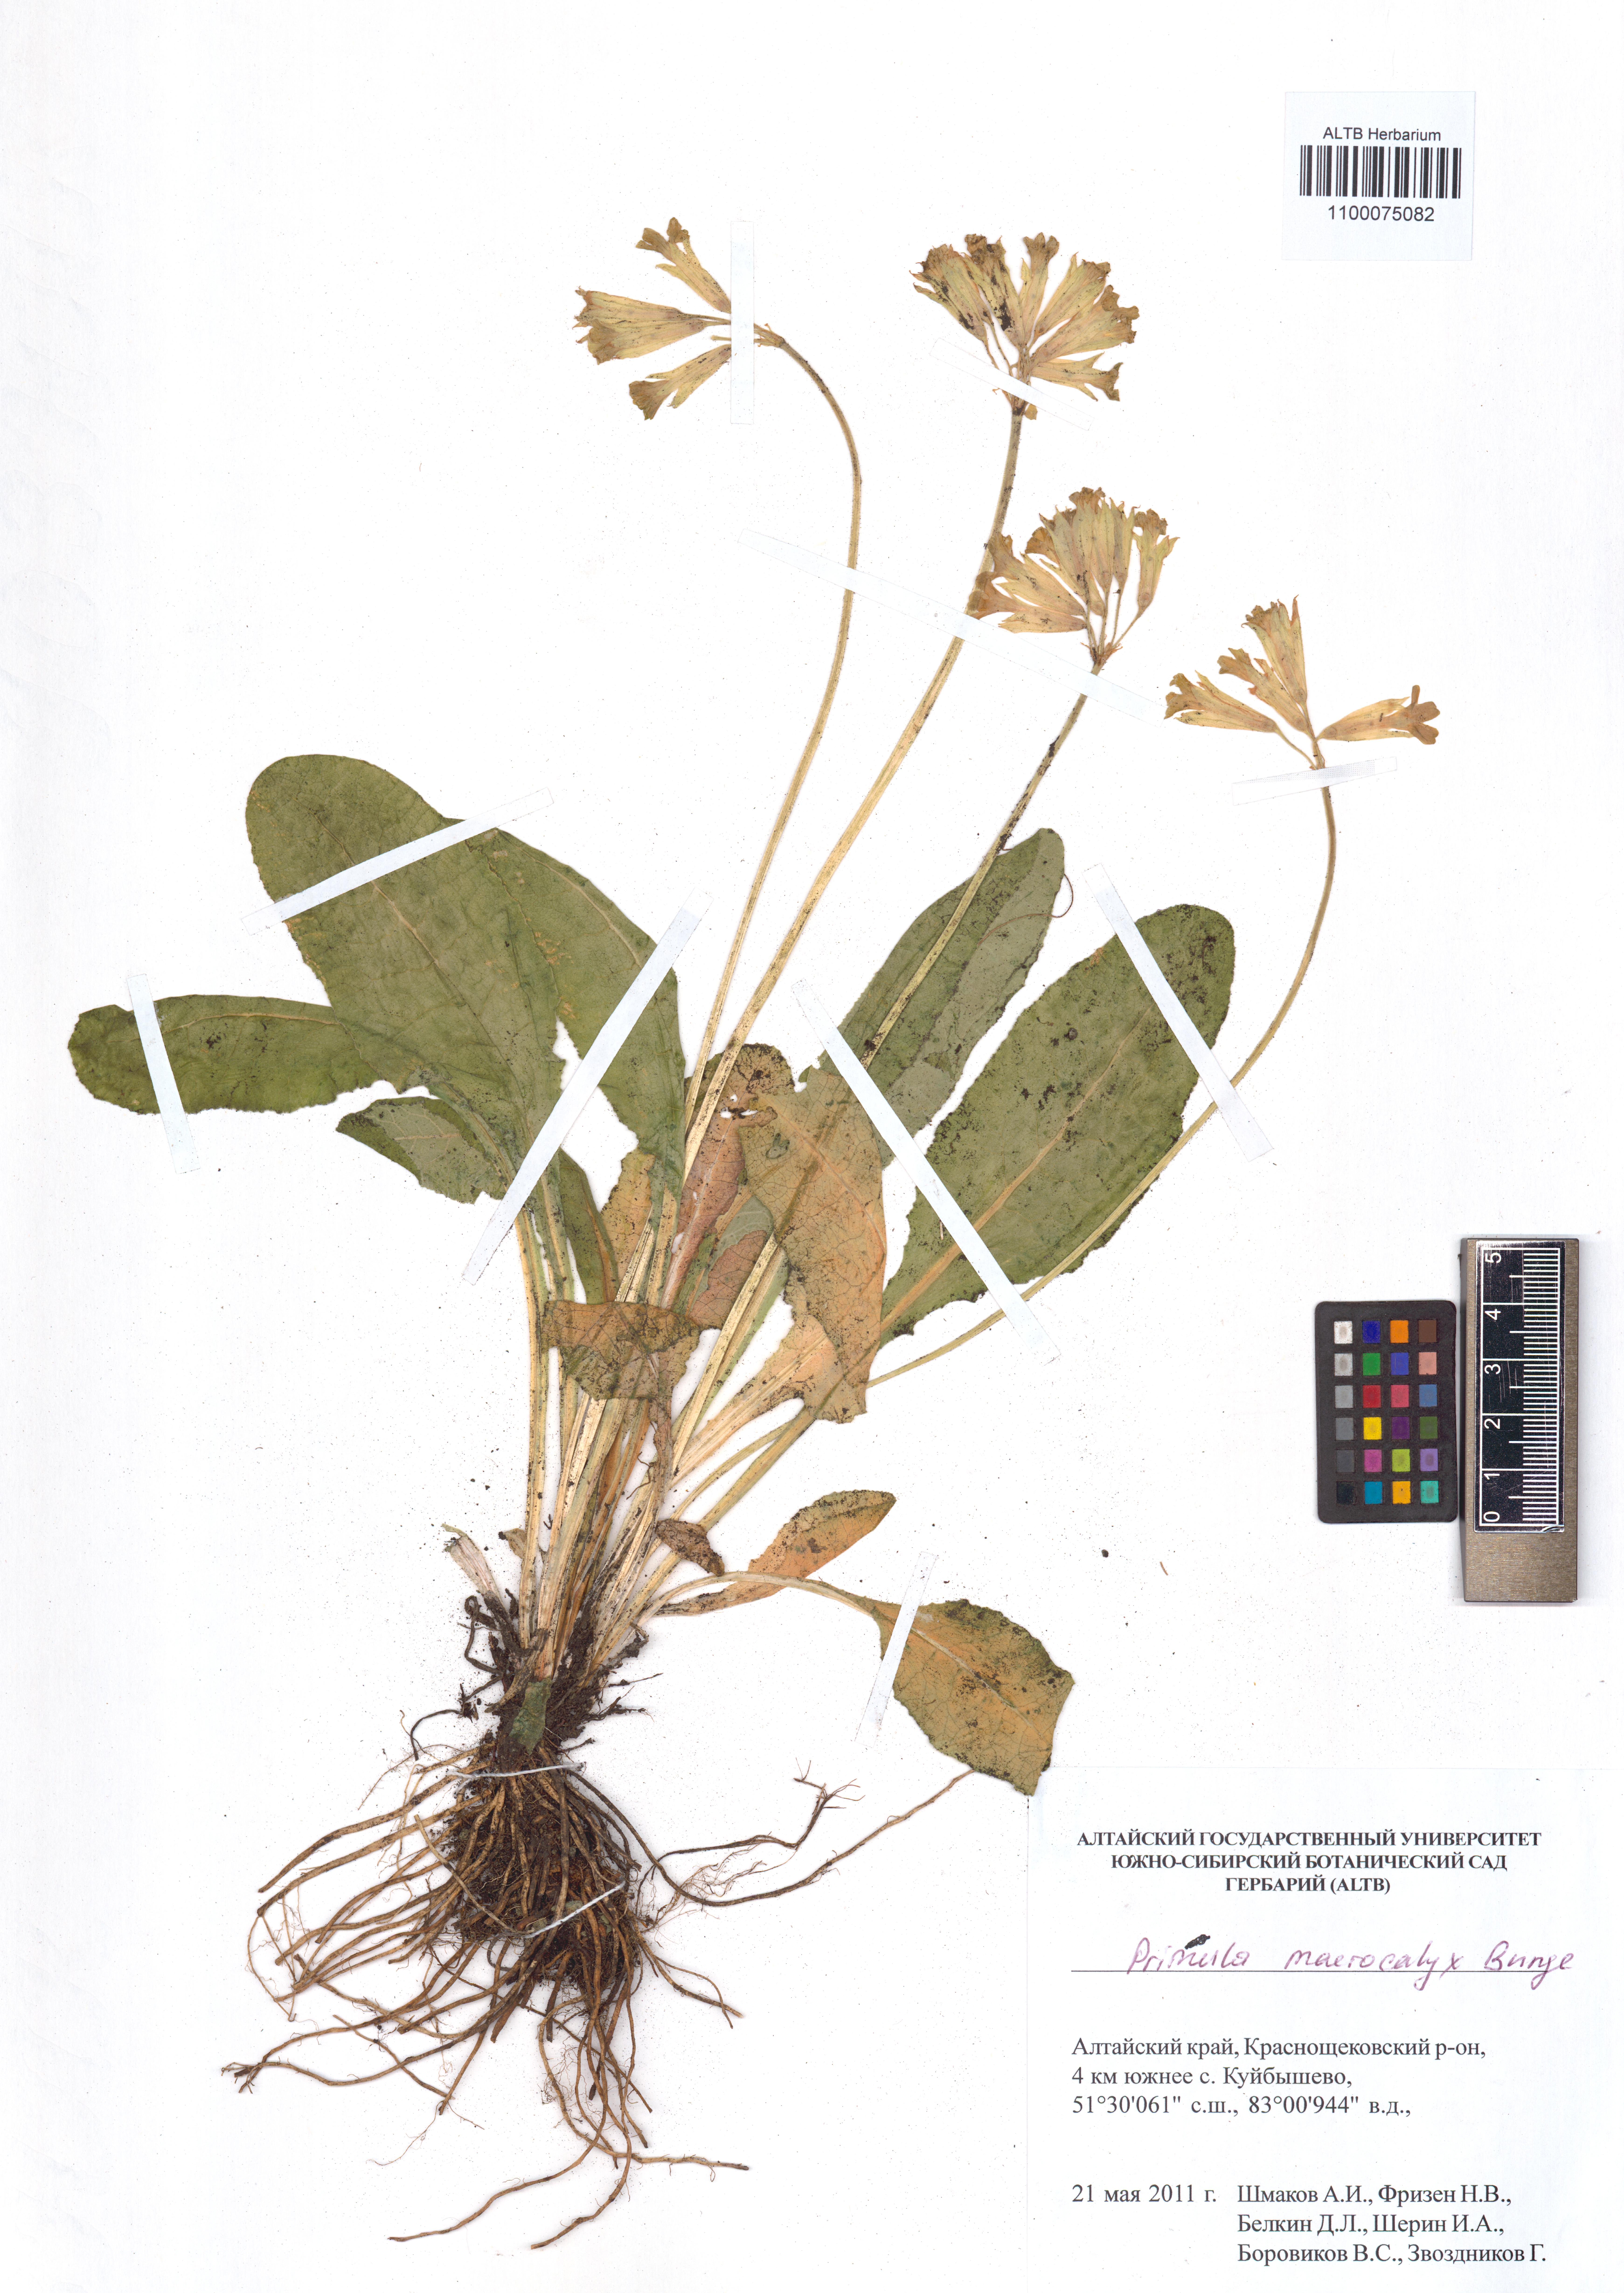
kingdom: Plantae
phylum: Tracheophyta
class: Magnoliopsida
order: Ericales
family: Primulaceae
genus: Primula
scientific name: Primula veris
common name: Cowslip
